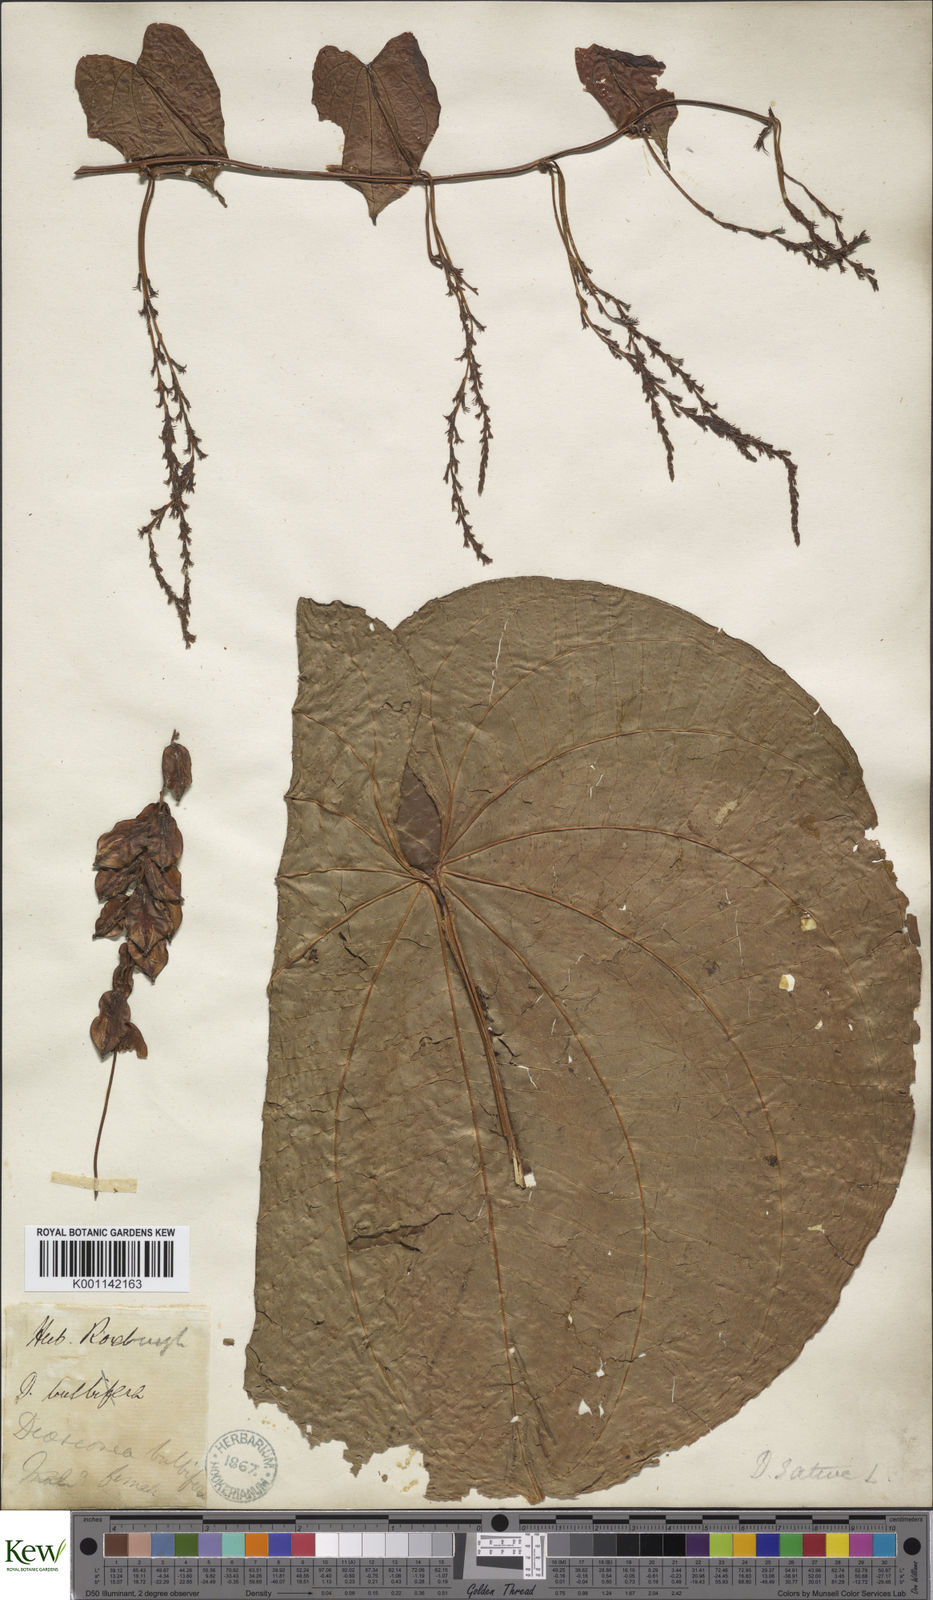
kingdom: Plantae
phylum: Tracheophyta
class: Liliopsida
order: Dioscoreales
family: Dioscoreaceae
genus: Dioscorea
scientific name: Dioscorea bulbifera
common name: Air yam
